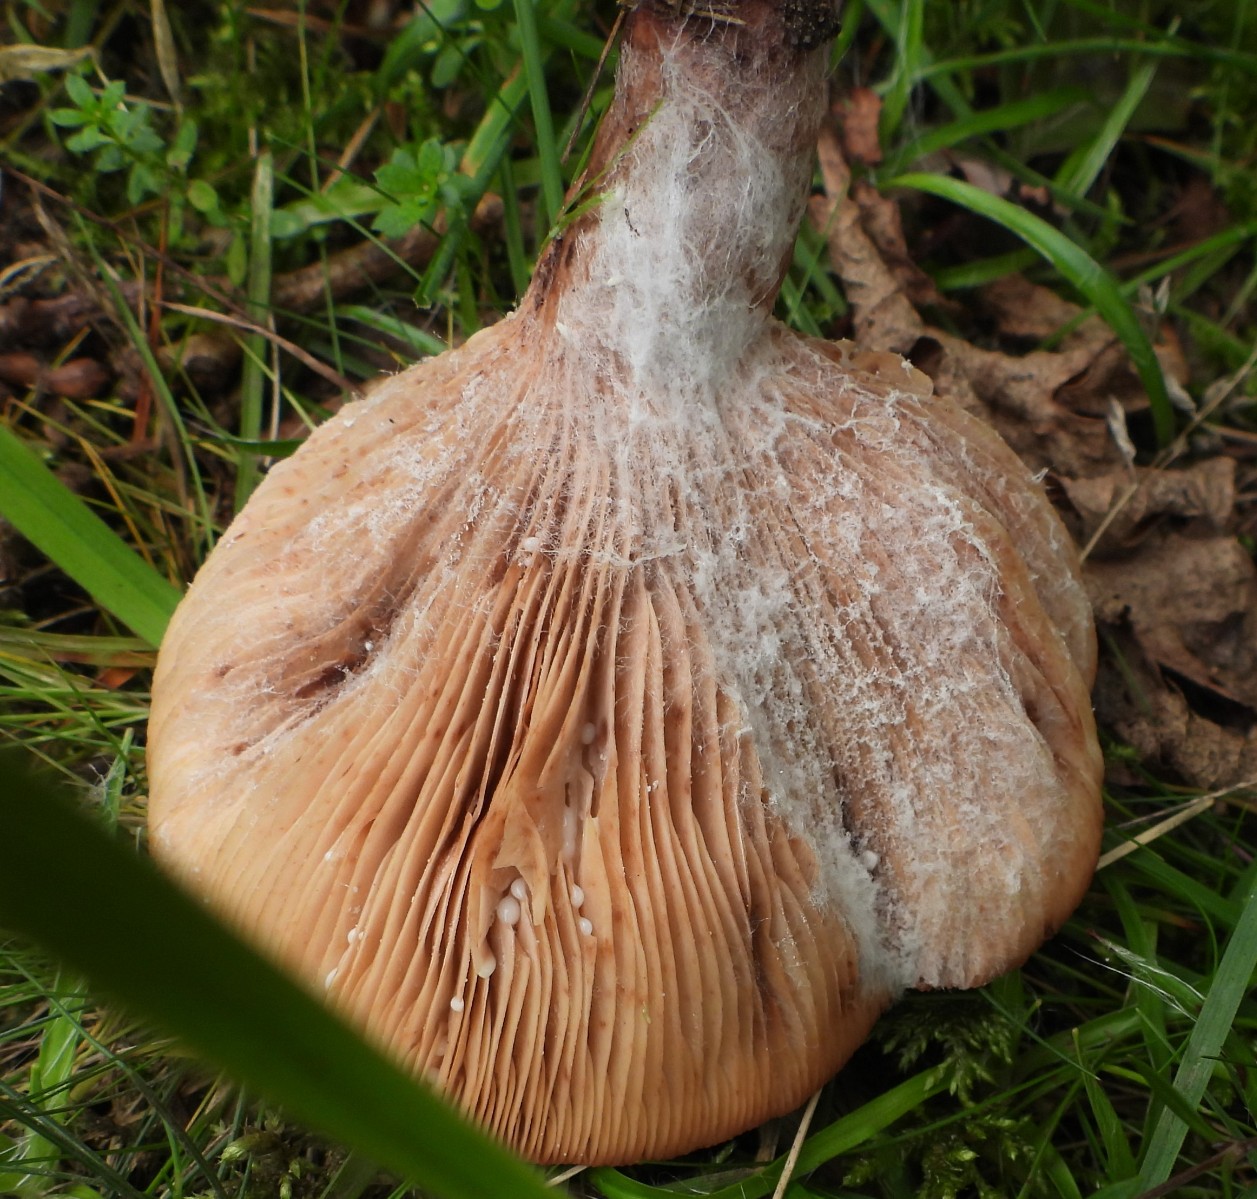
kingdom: Fungi
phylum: Basidiomycota
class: Agaricomycetes
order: Russulales
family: Russulaceae
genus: Lactarius
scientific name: Lactarius quietus
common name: ege-mælkehat
